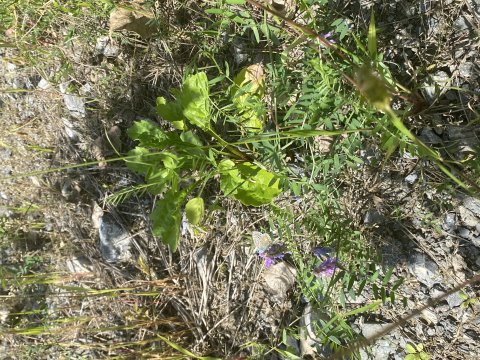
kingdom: Animalia
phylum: Arthropoda
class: Insecta
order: Lepidoptera
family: Lycaenidae
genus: Plebejus
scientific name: Plebejus samuelis
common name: Karner Blue
